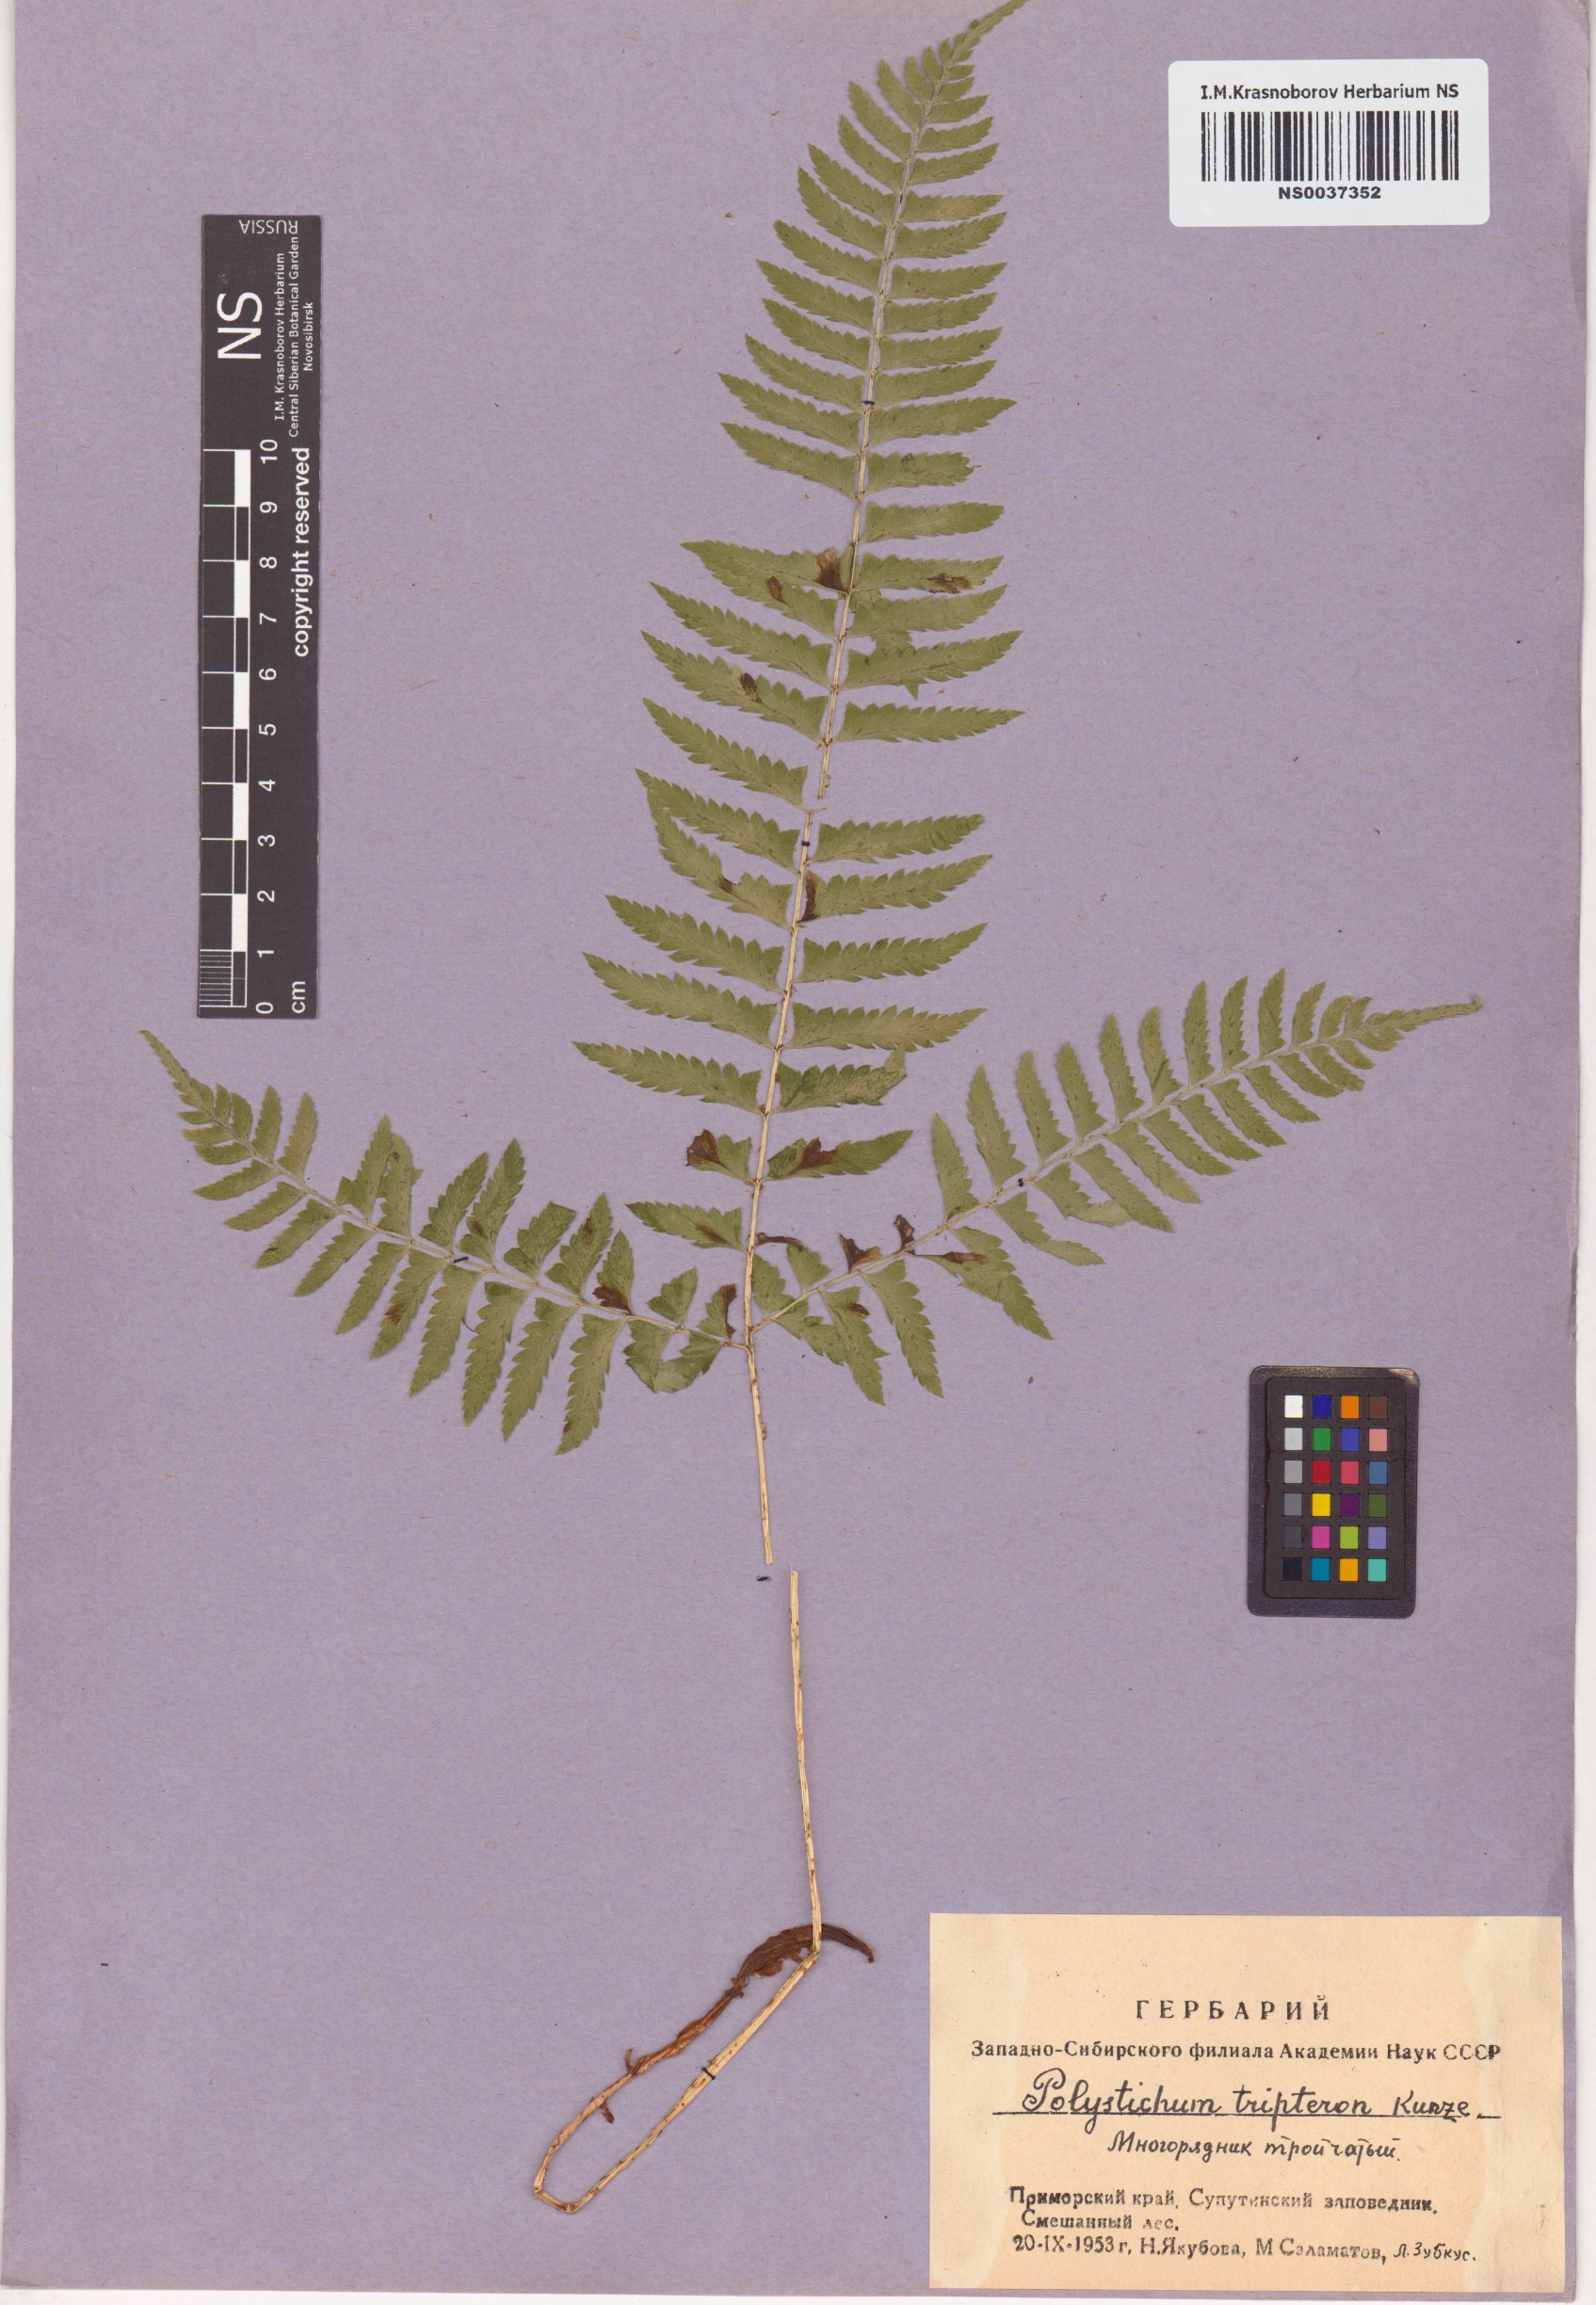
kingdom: Plantae
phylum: Tracheophyta
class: Polypodiopsida
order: Polypodiales
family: Dryopteridaceae
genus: Polystichum
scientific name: Polystichum tripteron
